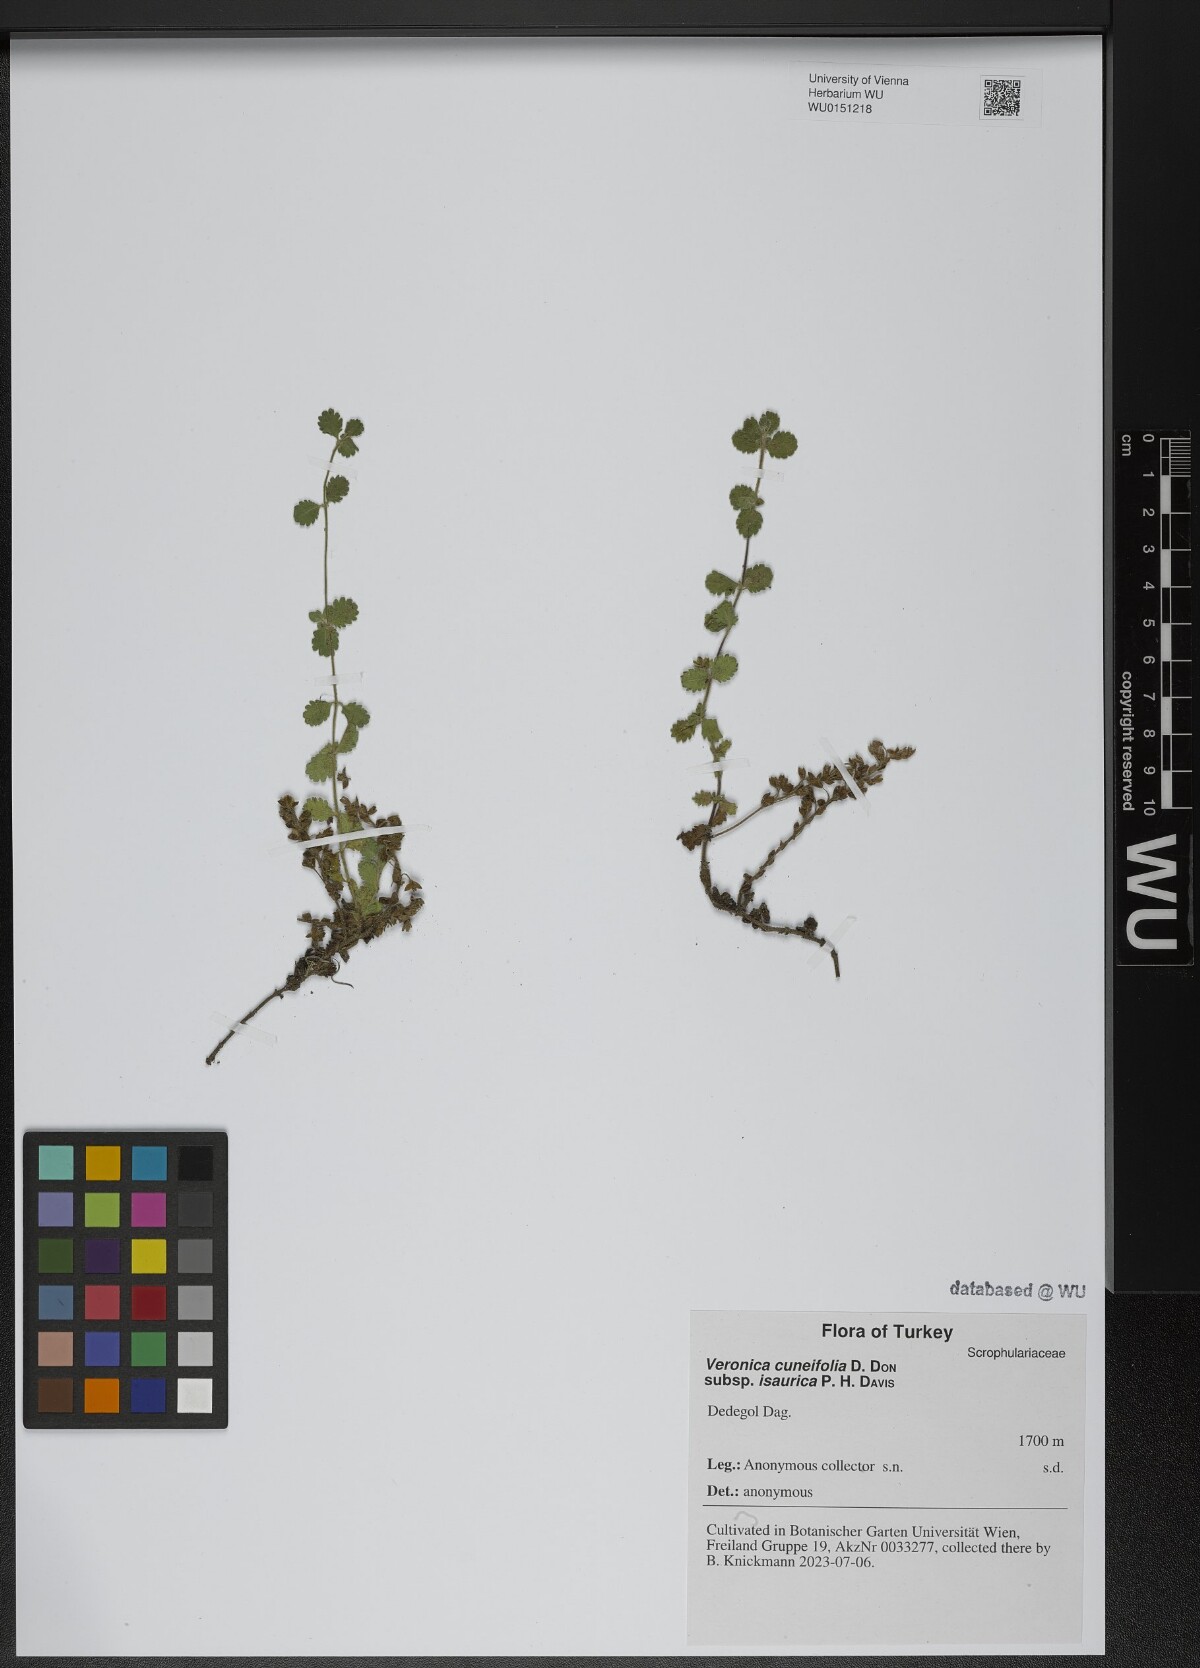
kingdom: Plantae
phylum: Tracheophyta
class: Magnoliopsida
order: Lamiales
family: Plantaginaceae
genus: Veronica
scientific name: Veronica cuneifolia
